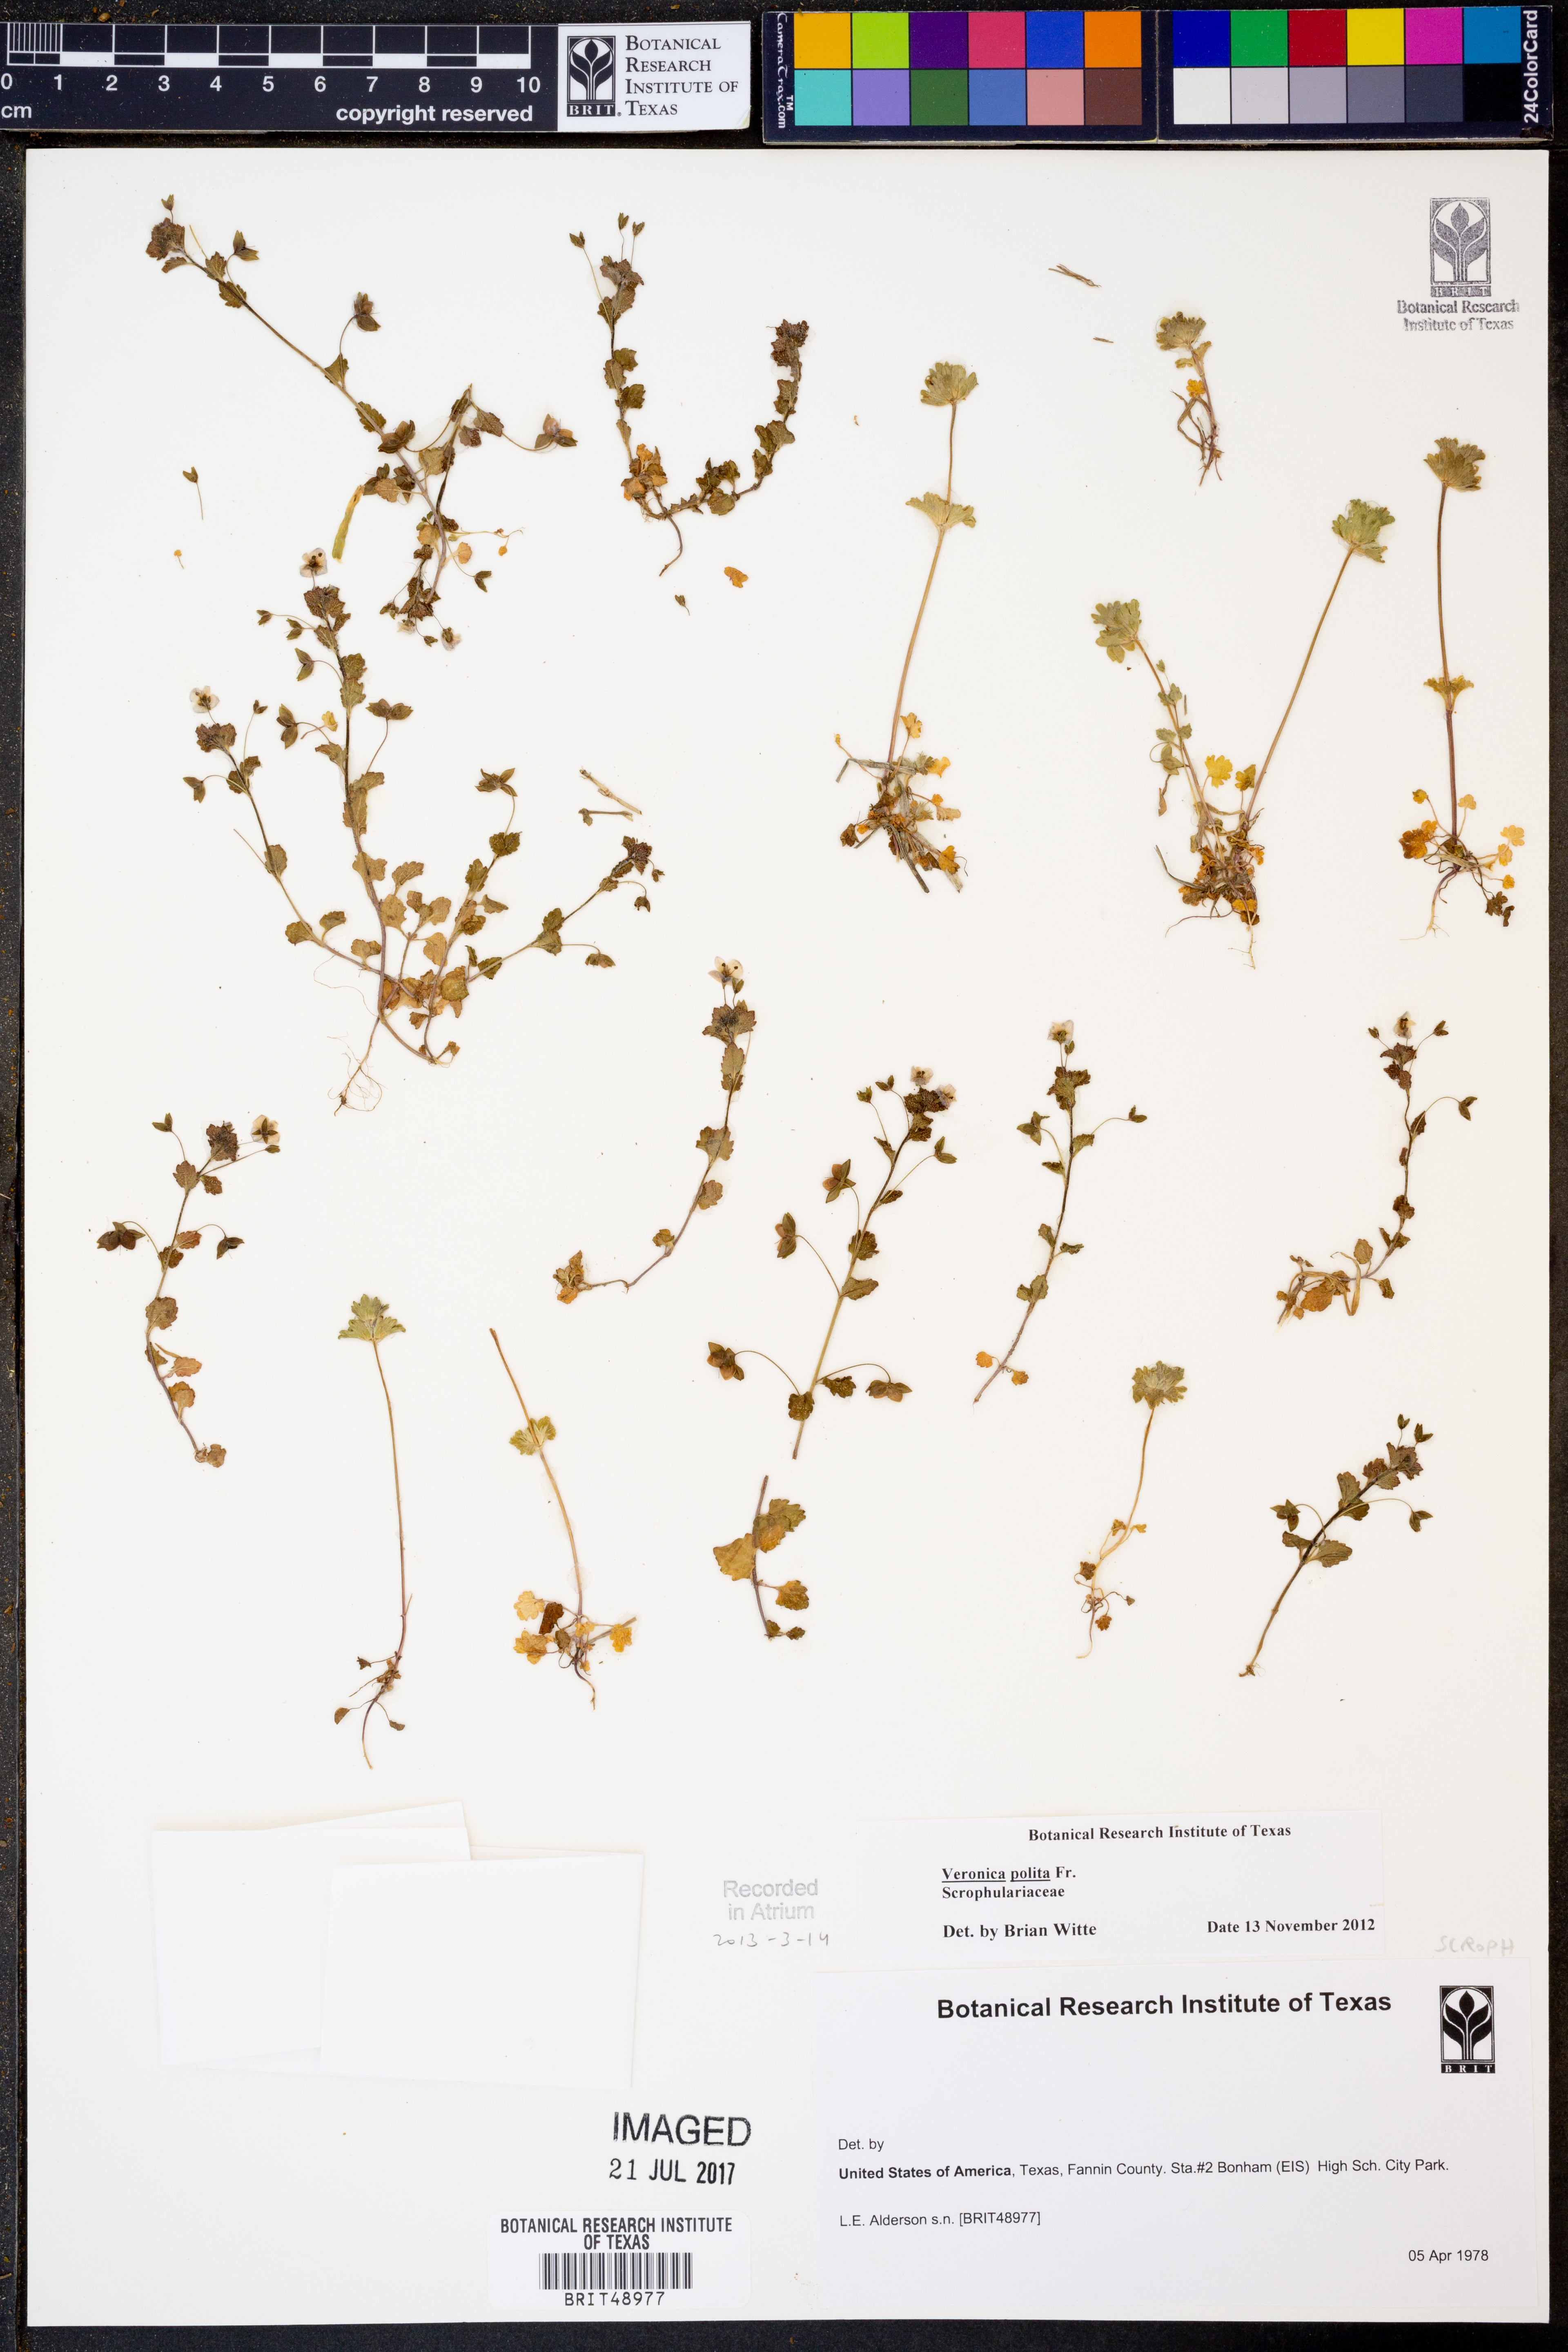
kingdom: Plantae
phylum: Tracheophyta
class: Magnoliopsida
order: Lamiales
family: Plantaginaceae
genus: Veronica
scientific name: Veronica polita
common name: Grey field-speedwell
